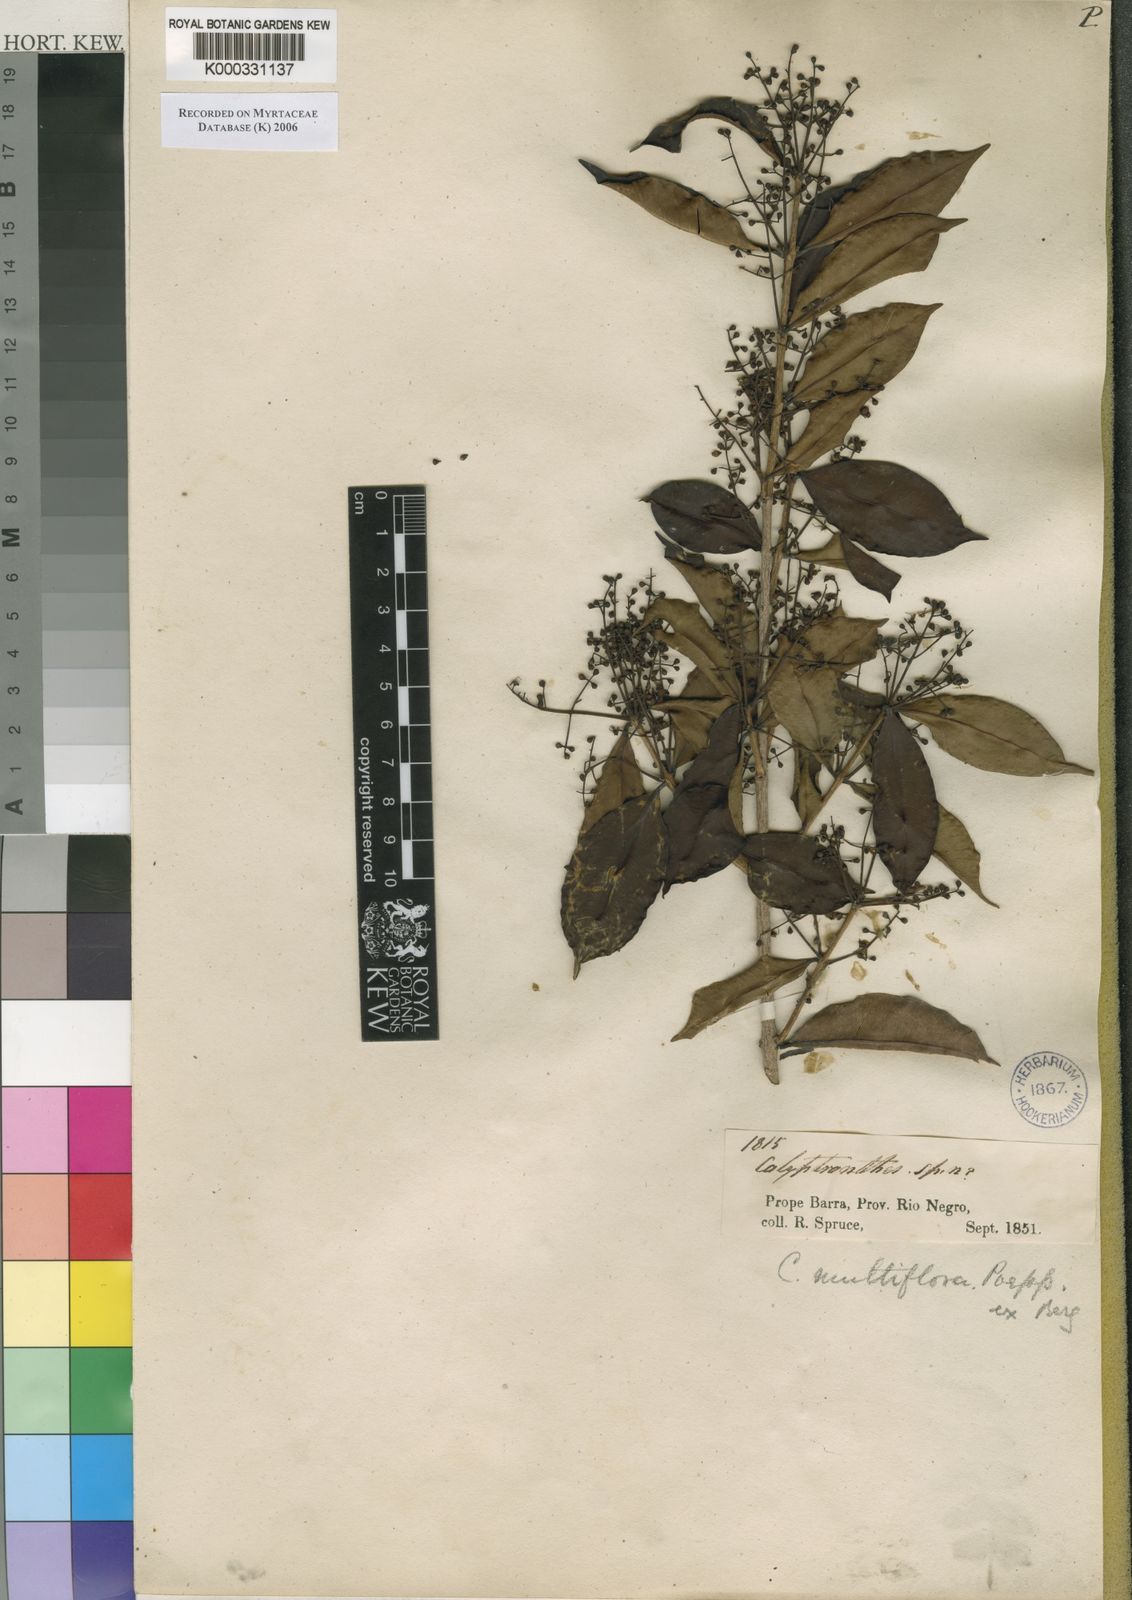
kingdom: Plantae
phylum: Tracheophyta
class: Magnoliopsida
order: Myrtales
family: Myrtaceae
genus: Myrcia
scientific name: Myrcia aulomyrcioides
